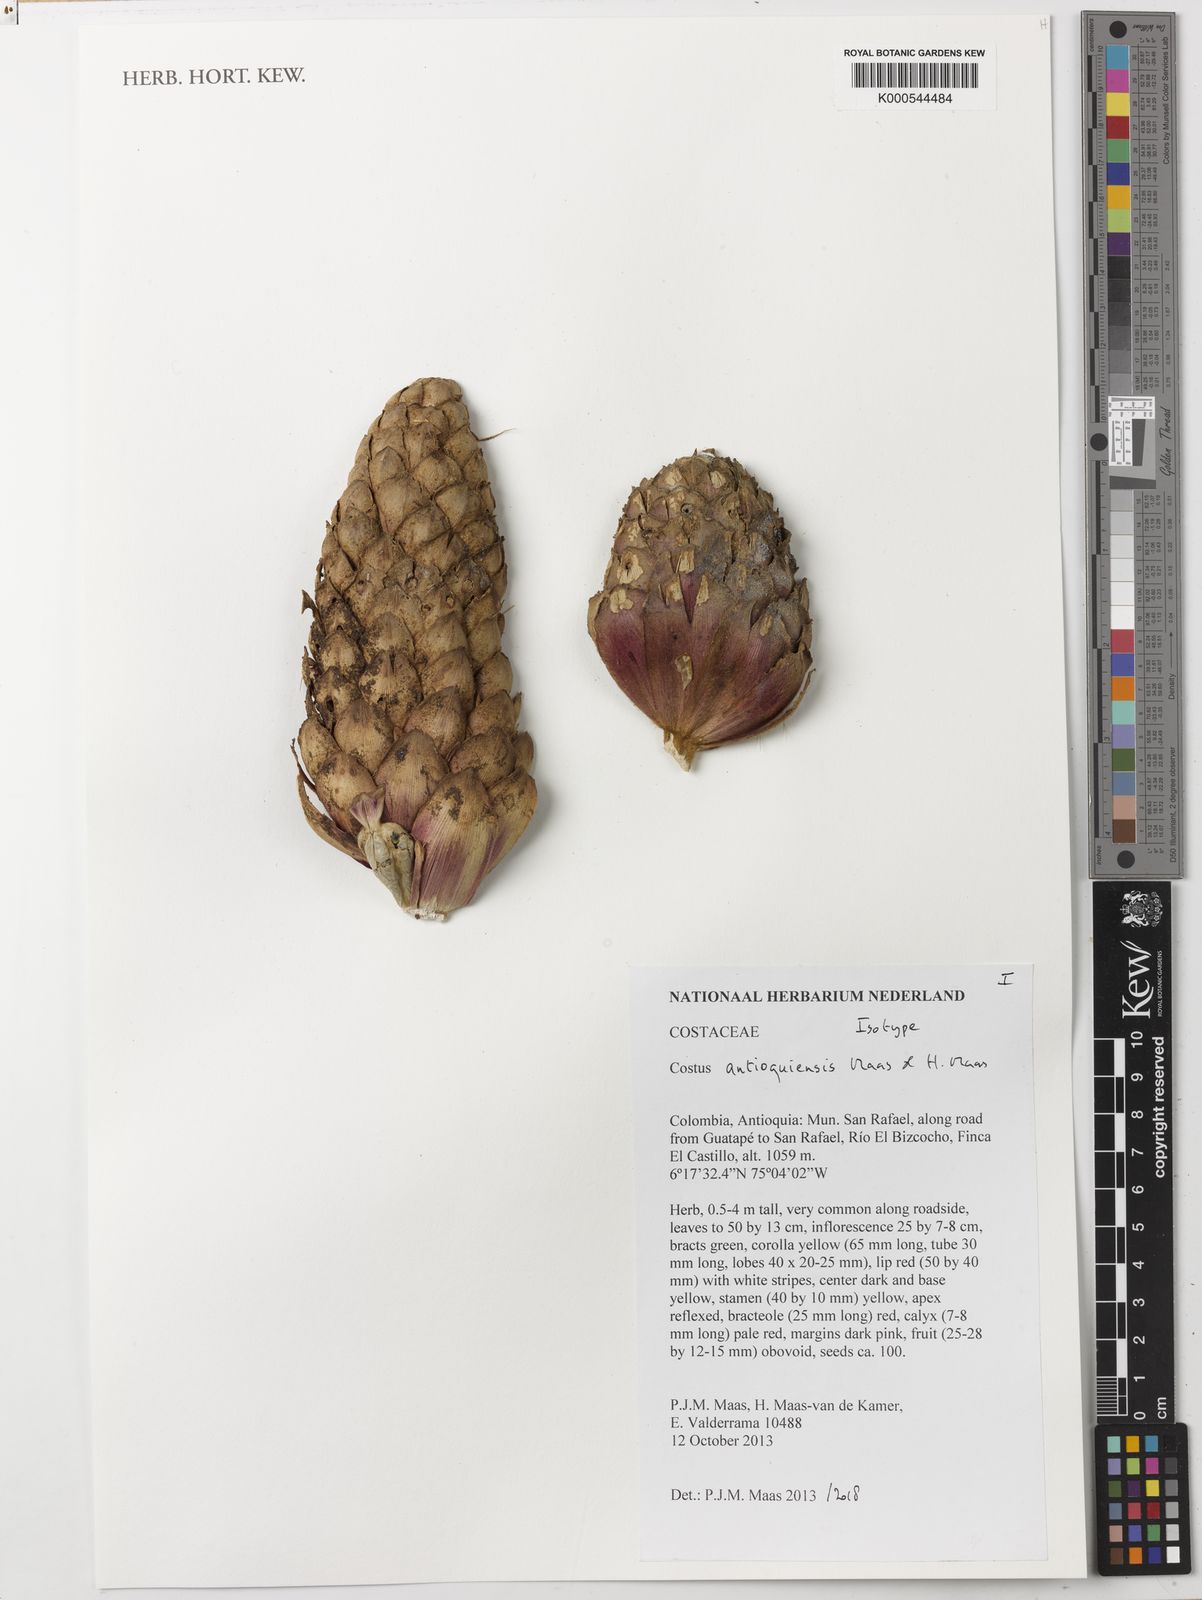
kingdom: Plantae
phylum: Tracheophyta
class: Liliopsida
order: Zingiberales
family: Costaceae
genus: Costus
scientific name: Costus
